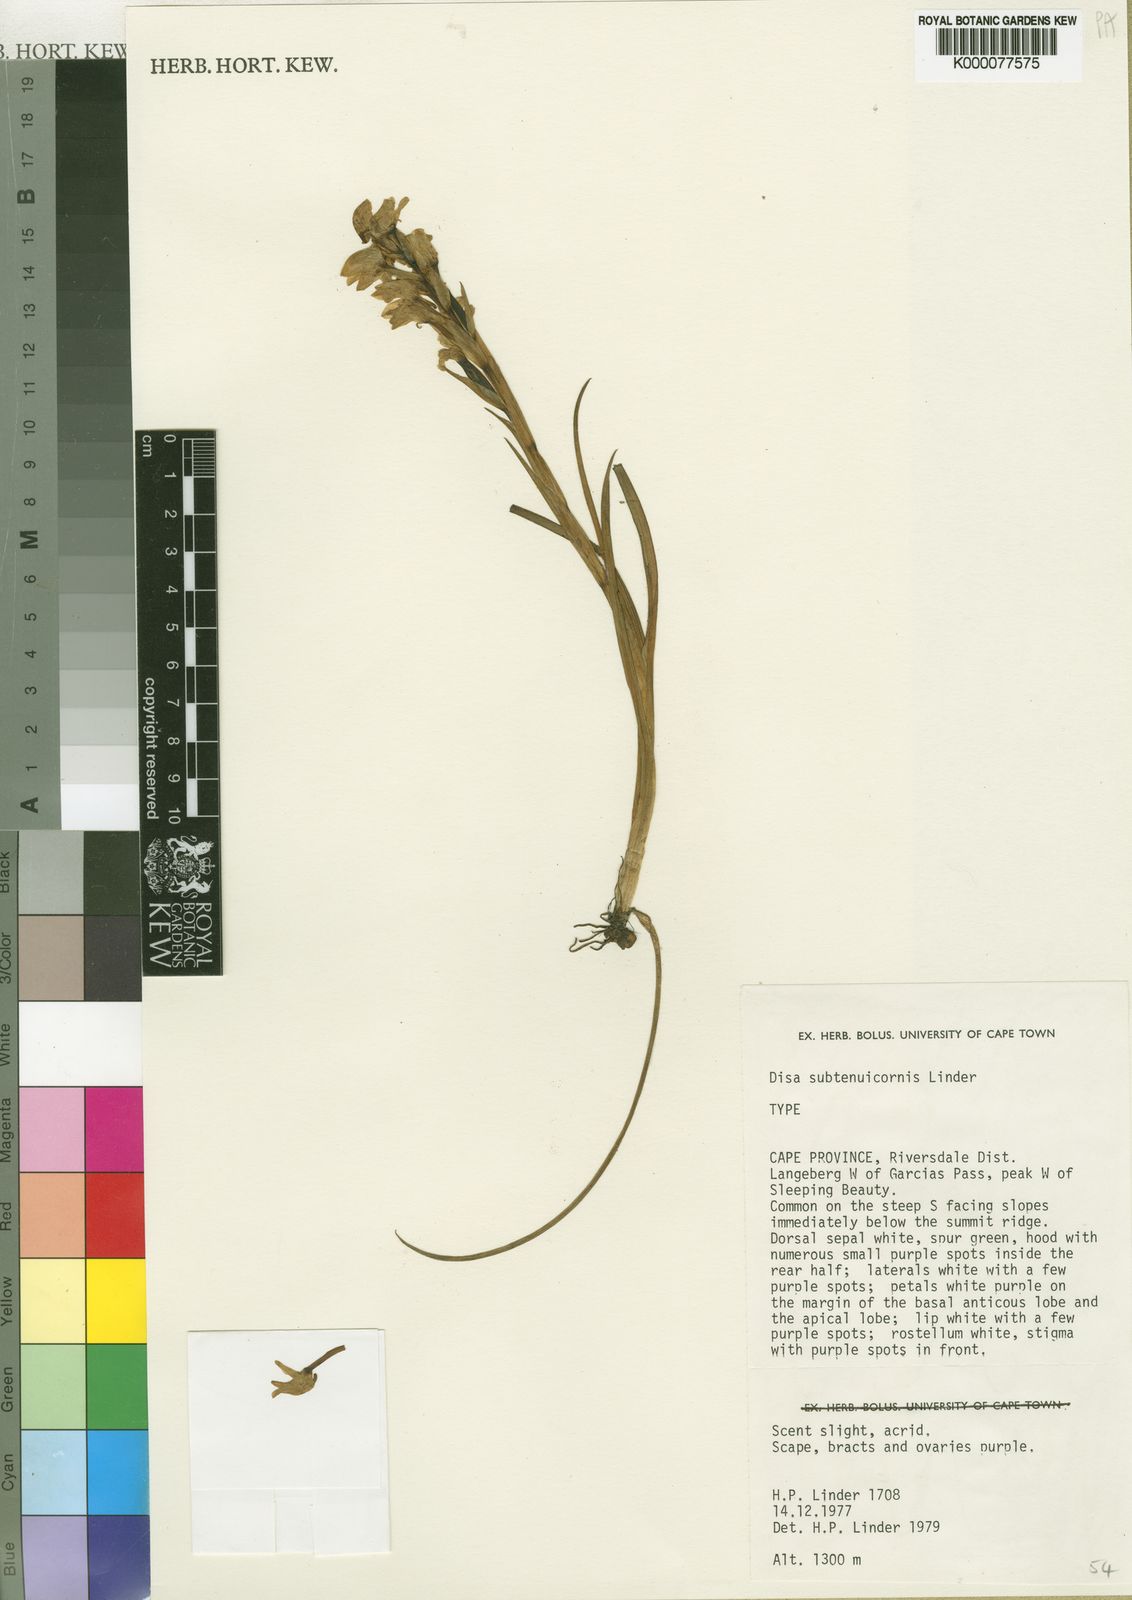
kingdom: Plantae
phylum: Tracheophyta
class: Liliopsida
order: Asparagales
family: Orchidaceae
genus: Disa
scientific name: Disa subtenuicornis
